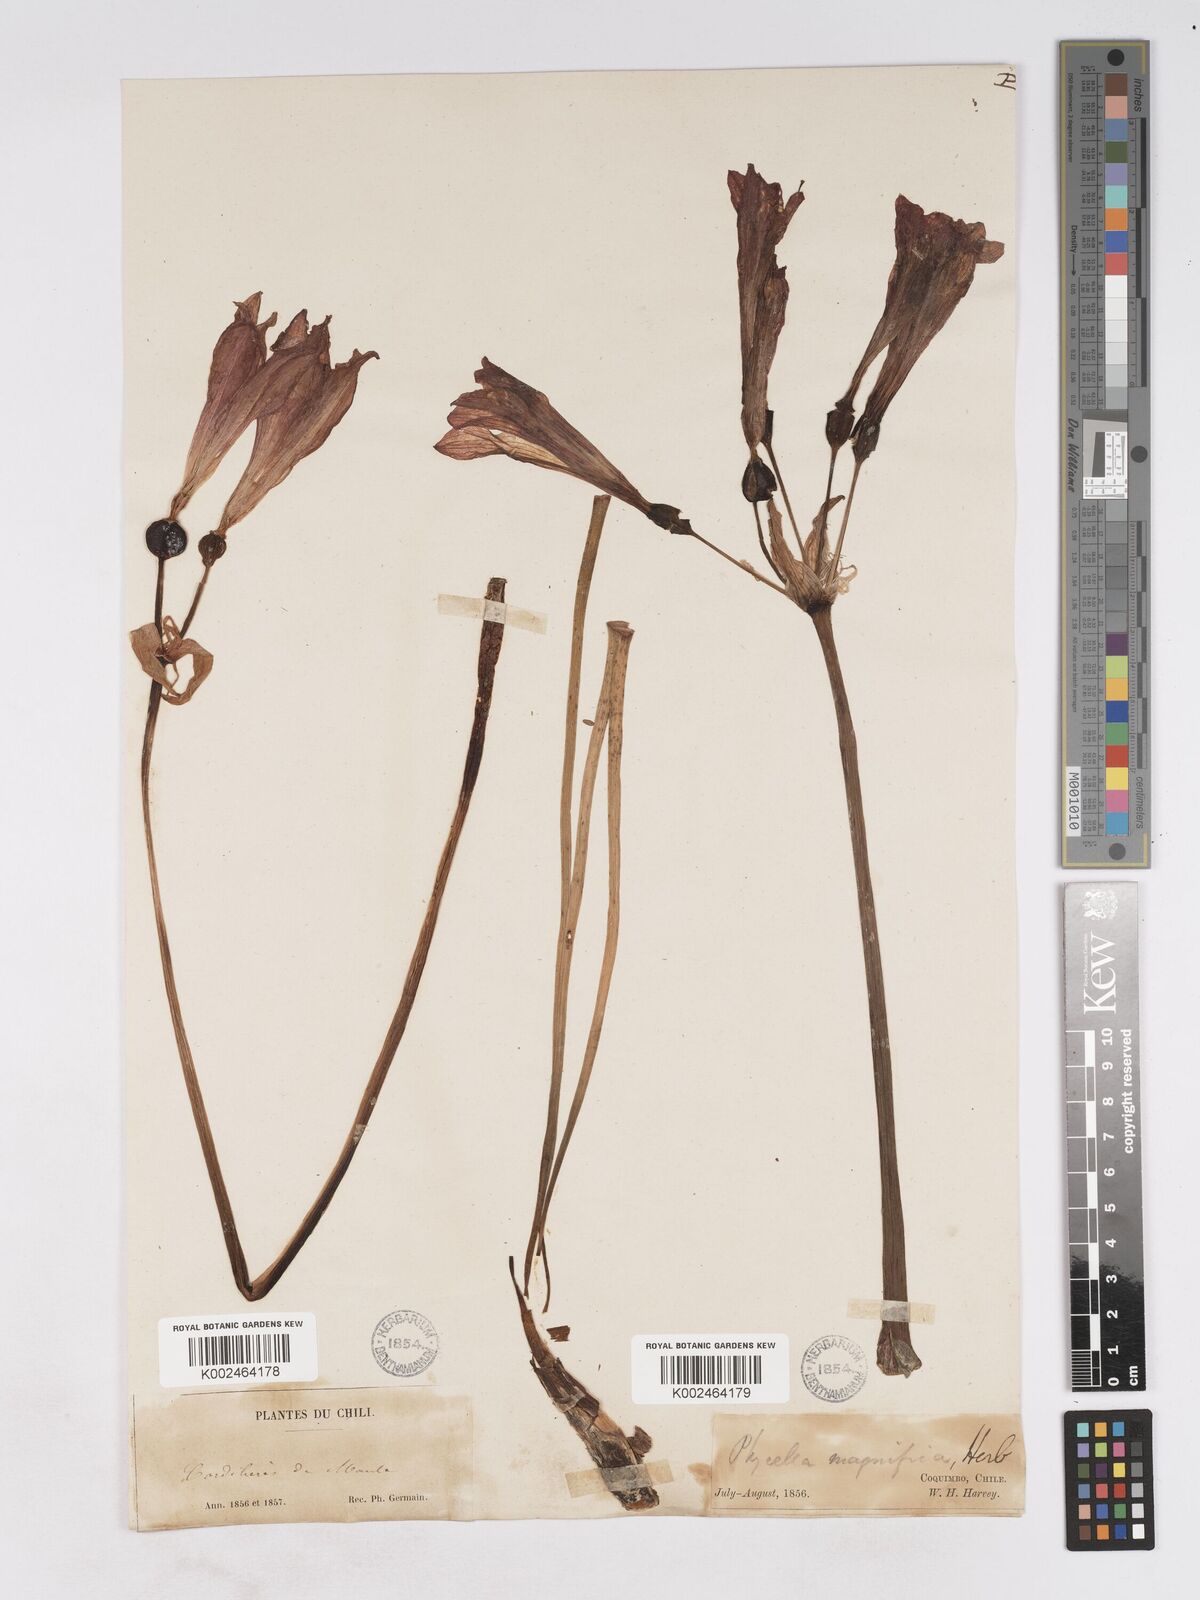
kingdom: Plantae
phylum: Tracheophyta
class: Liliopsida
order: Asparagales
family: Amaryllidaceae
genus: Phycella
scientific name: Phycella cyrtanthoides
